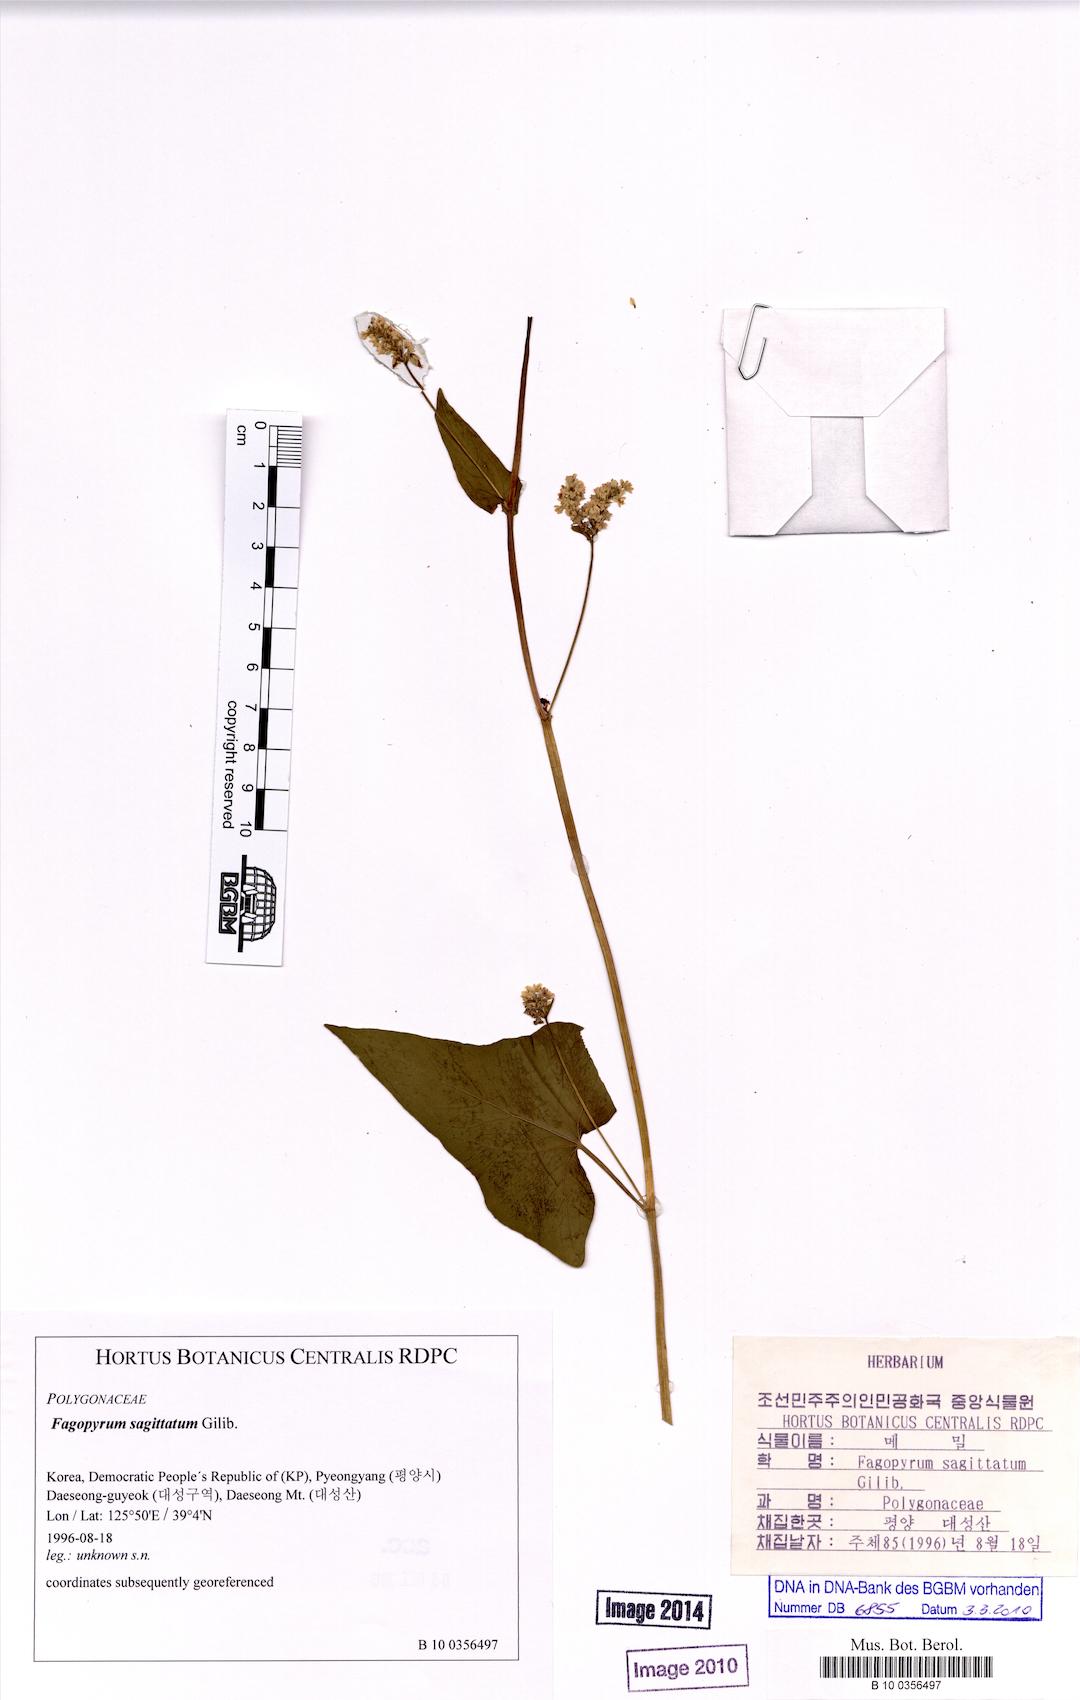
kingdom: Plantae
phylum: Tracheophyta
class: Magnoliopsida
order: Caryophyllales
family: Polygonaceae
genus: Fagopyrum
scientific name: Fagopyrum esculentum
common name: Buckwheat
